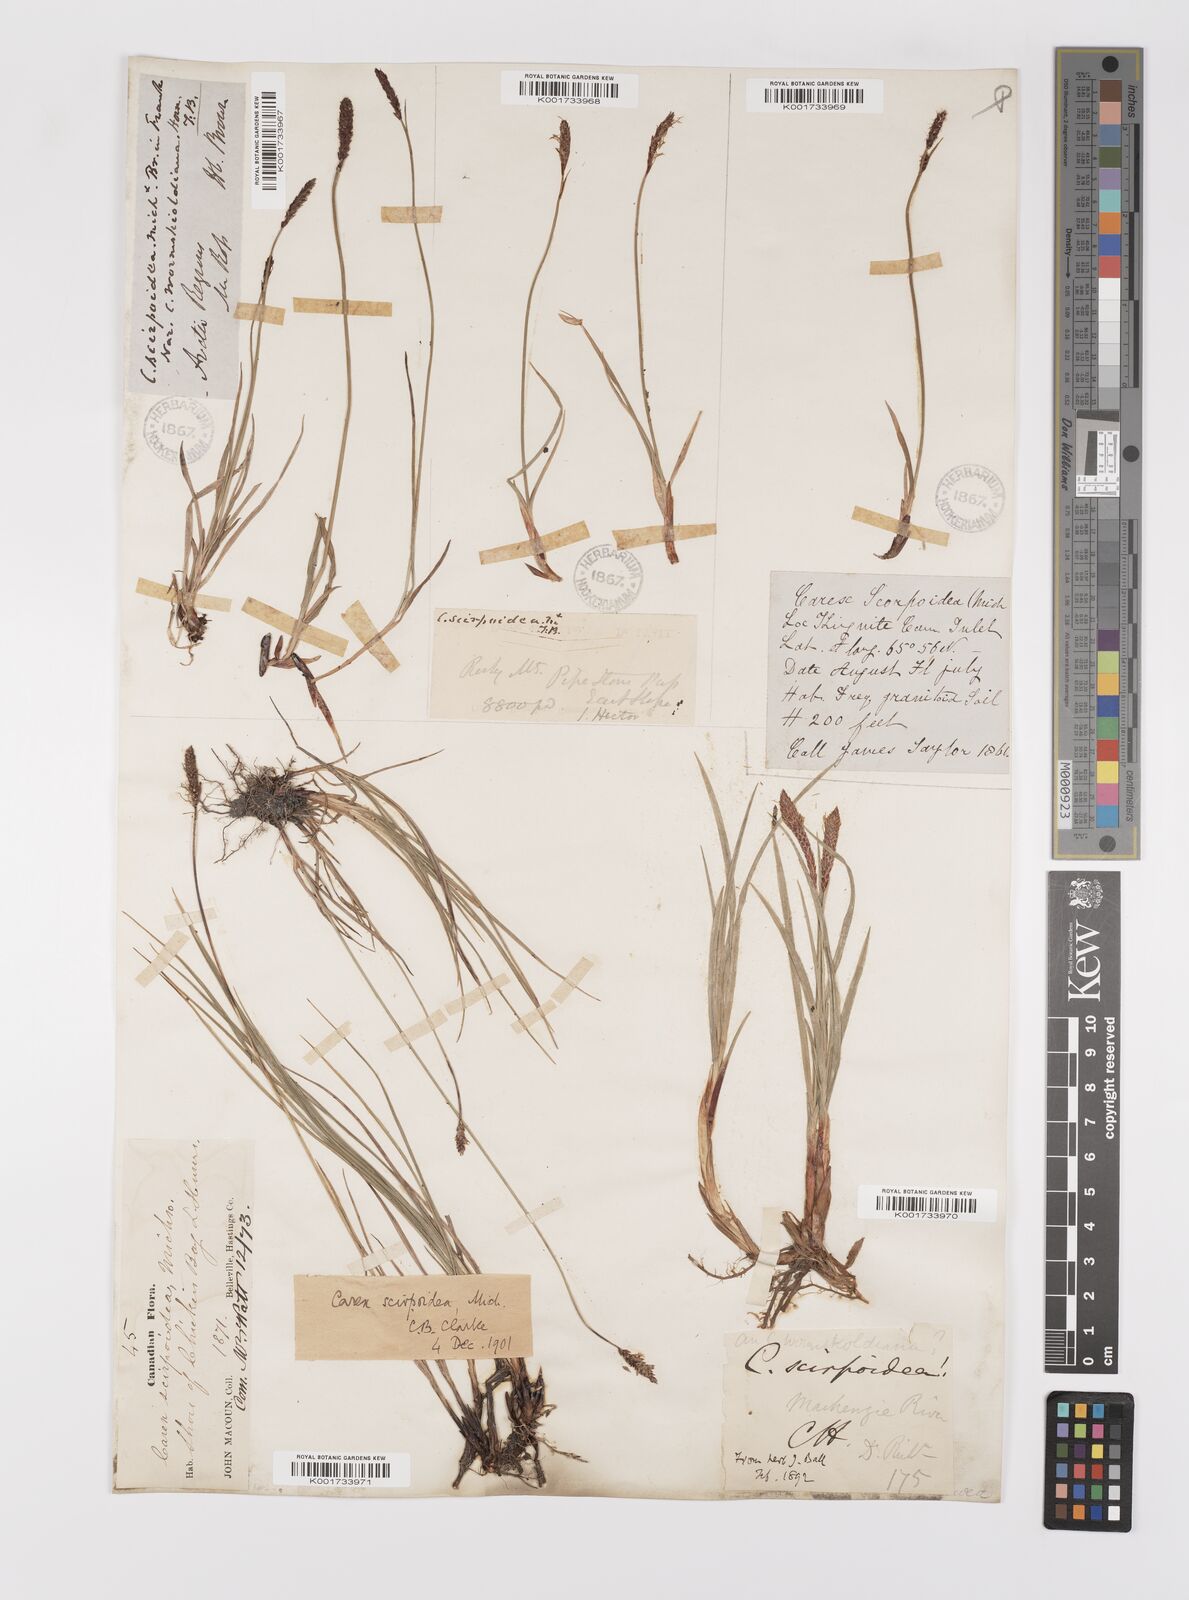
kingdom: Plantae
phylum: Tracheophyta
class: Liliopsida
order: Poales
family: Cyperaceae
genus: Carex
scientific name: Carex scirpoidea
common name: Canada single-spike sedge
